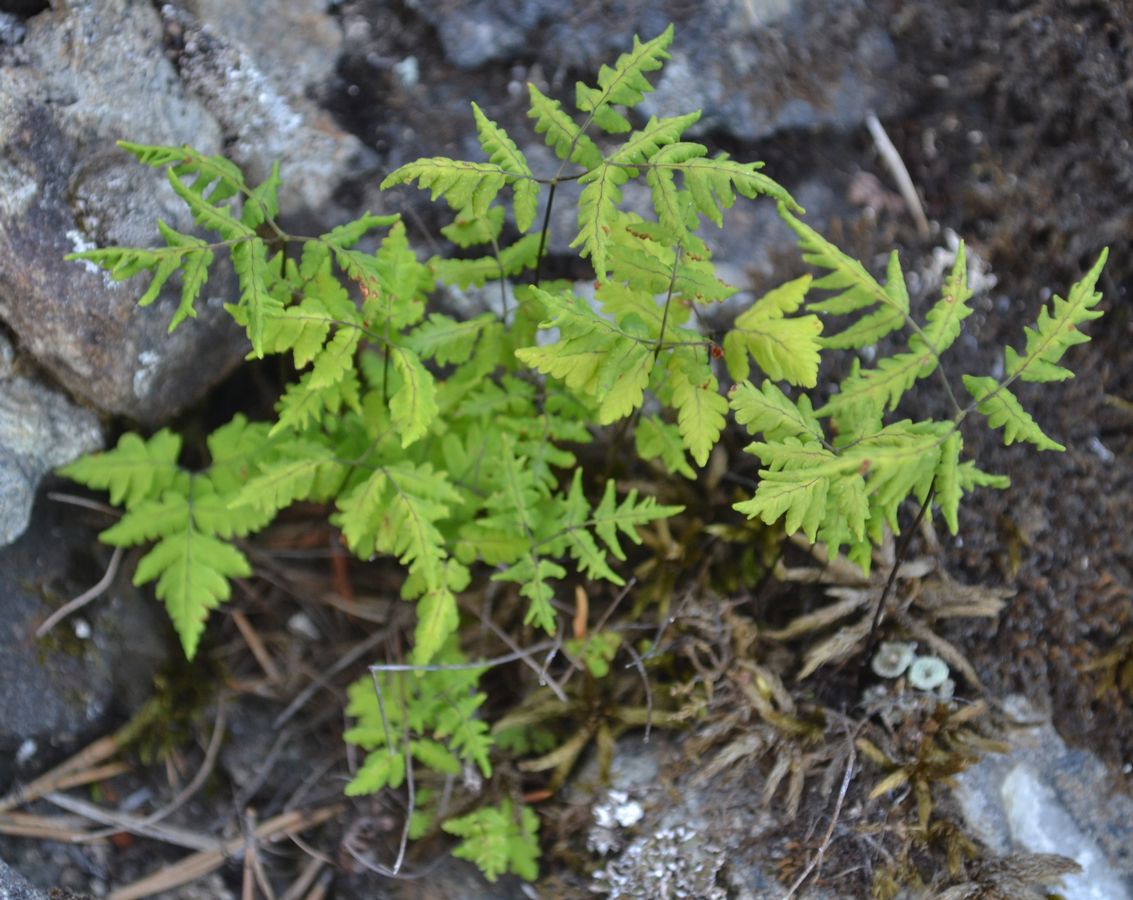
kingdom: Plantae
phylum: Tracheophyta
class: Polypodiopsida
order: Polypodiales
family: Cystopteridaceae
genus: Gymnocarpium
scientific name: Gymnocarpium dryopteris
